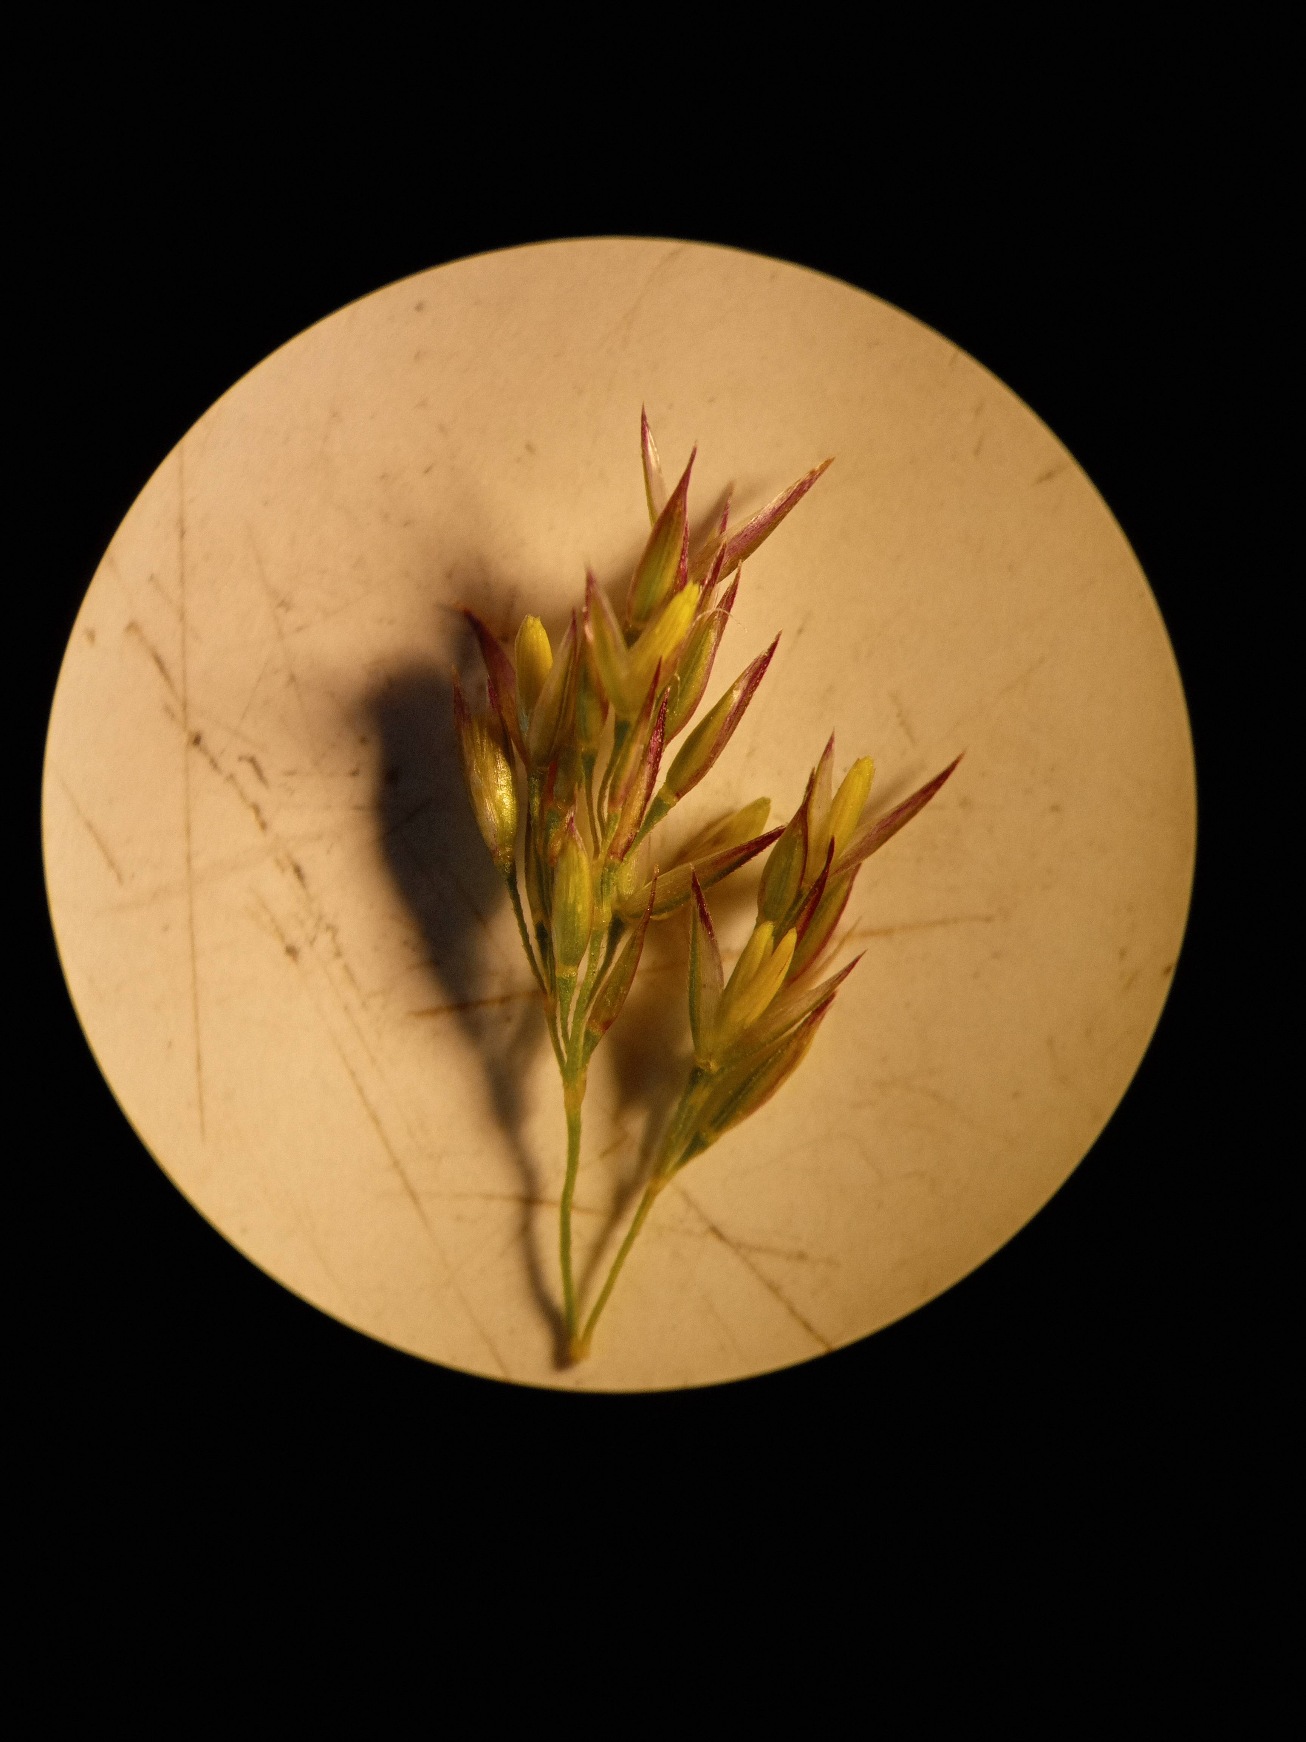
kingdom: Plantae
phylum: Tracheophyta
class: Liliopsida
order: Poales
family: Poaceae
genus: Agrostis
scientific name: Agrostis stolonifera
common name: Kryb-hvene
